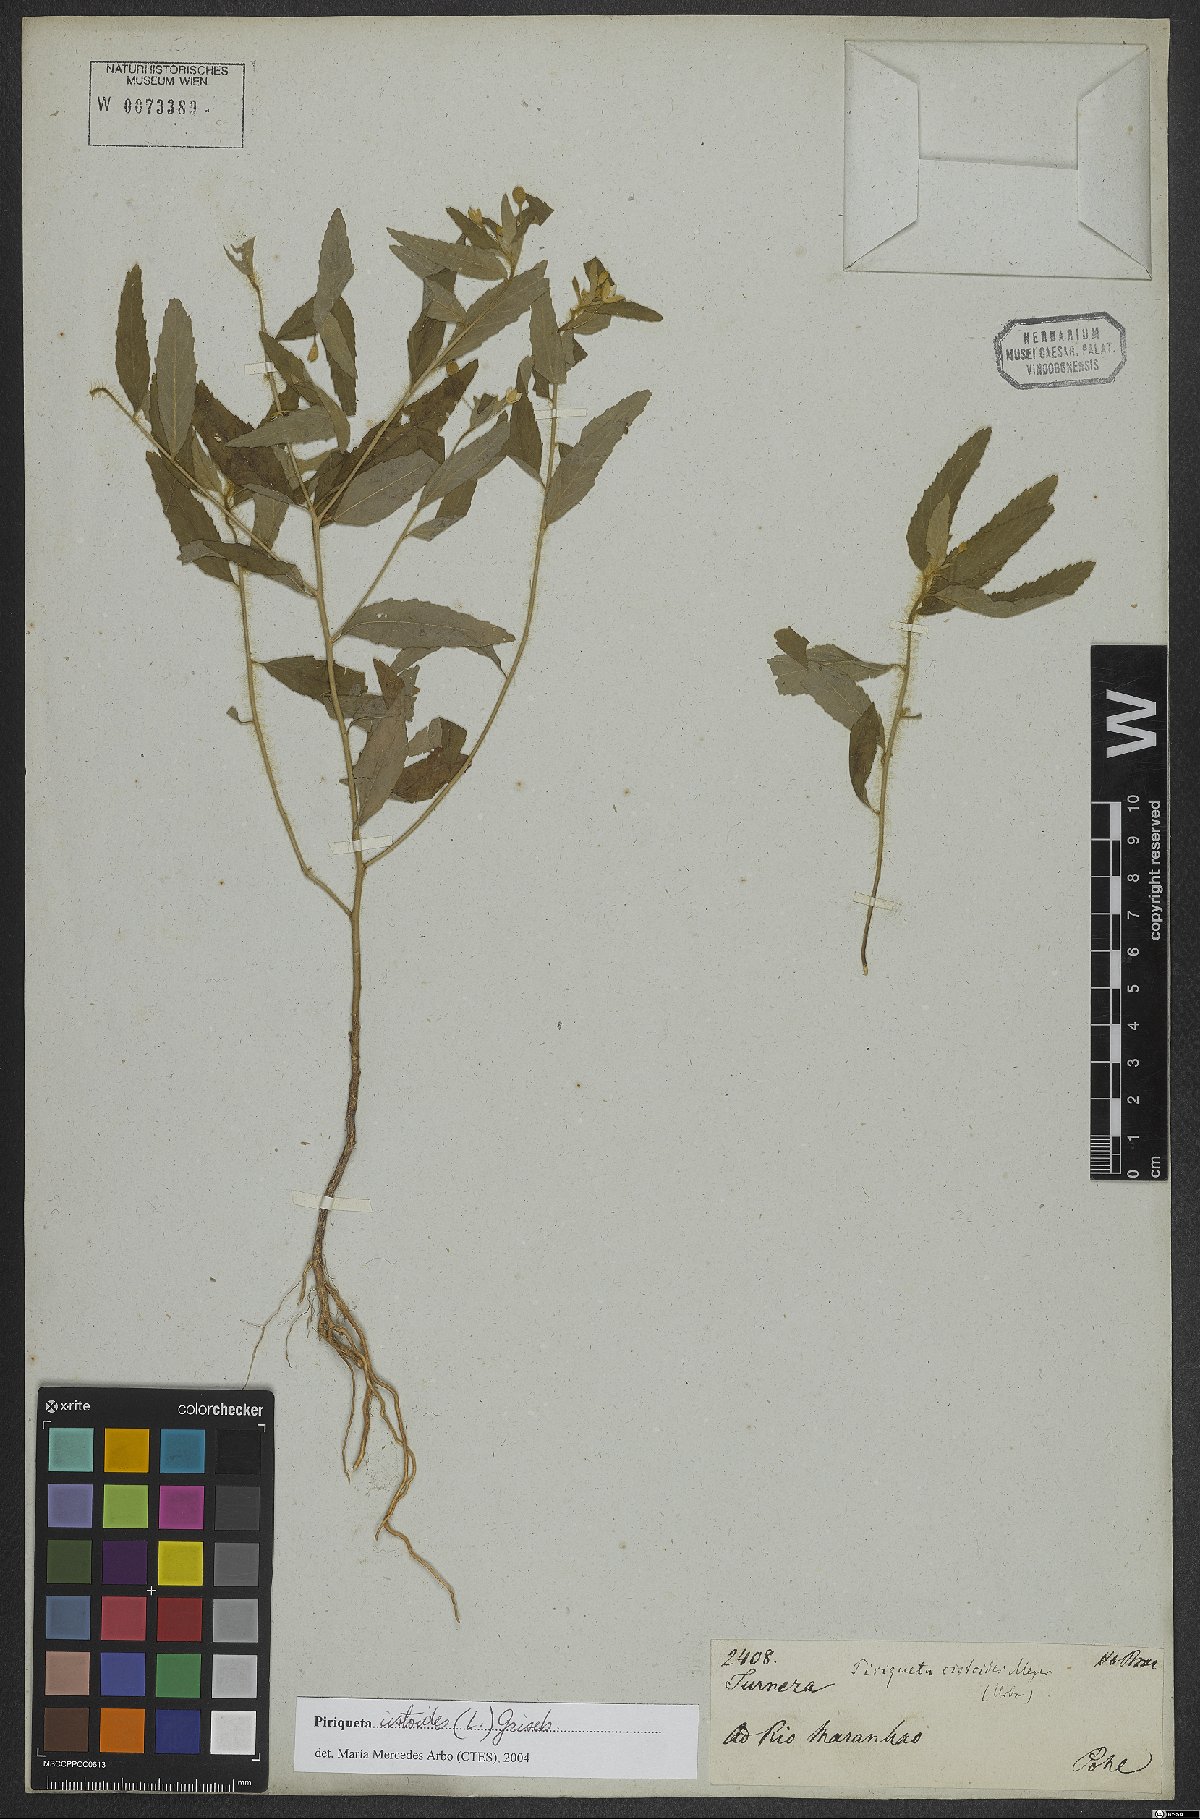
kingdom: Plantae
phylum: Tracheophyta
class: Magnoliopsida
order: Malpighiales
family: Turneraceae
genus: Piriqueta
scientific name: Piriqueta cistoides
